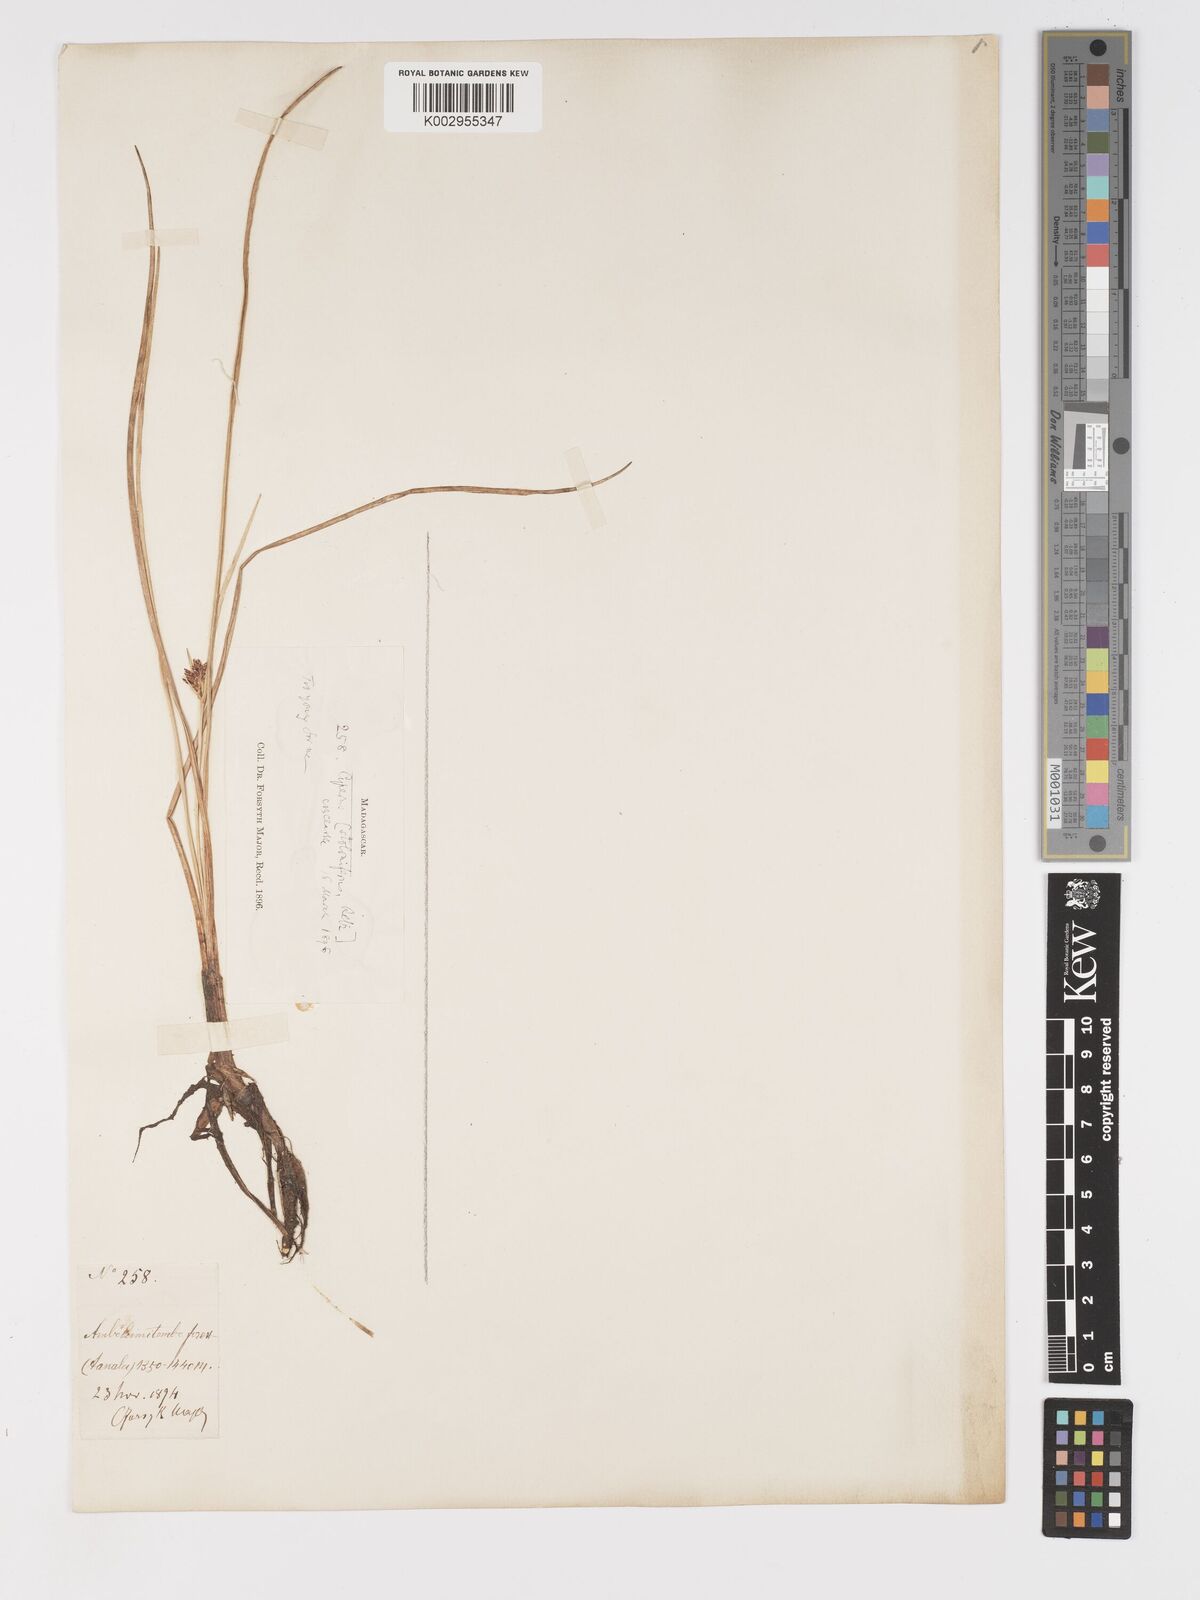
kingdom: Plantae
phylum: Tracheophyta
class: Liliopsida
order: Poales
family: Cyperaceae
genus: Cyperus
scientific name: Cyperus bulbosus
